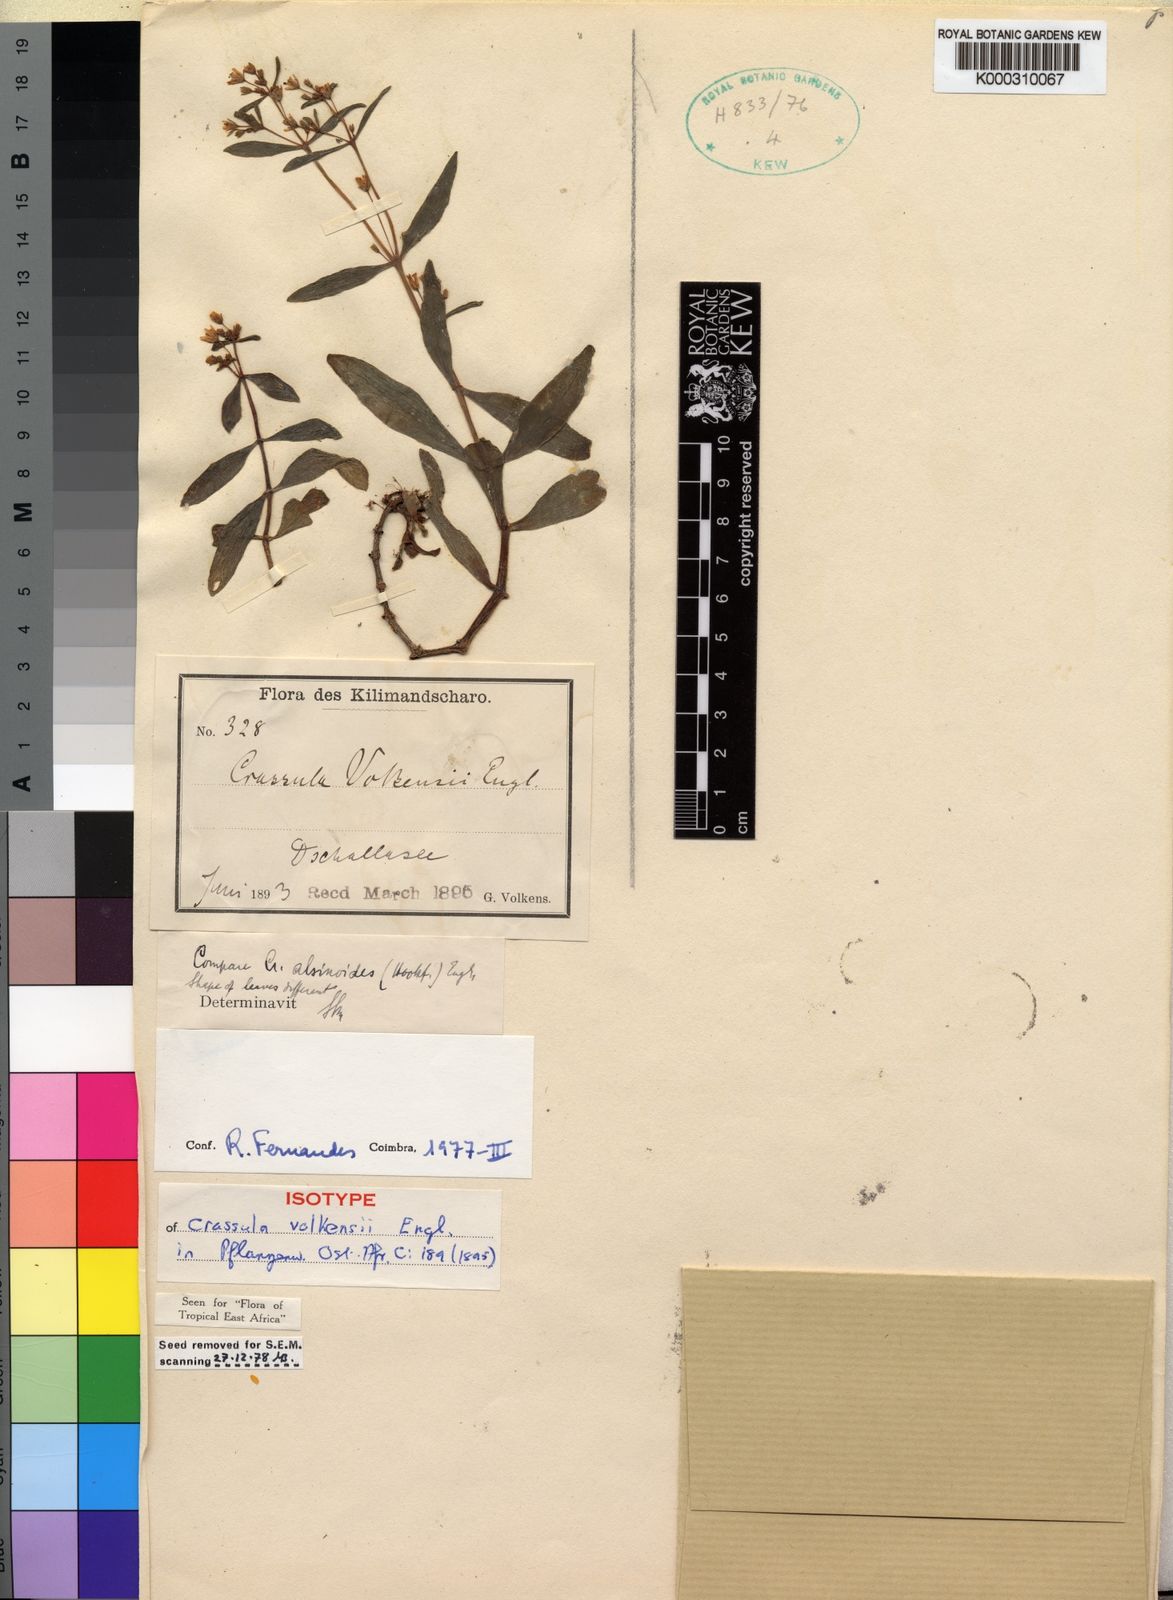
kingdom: Plantae
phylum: Tracheophyta
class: Magnoliopsida
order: Saxifragales
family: Crassulaceae
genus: Crassula
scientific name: Crassula volkensii
